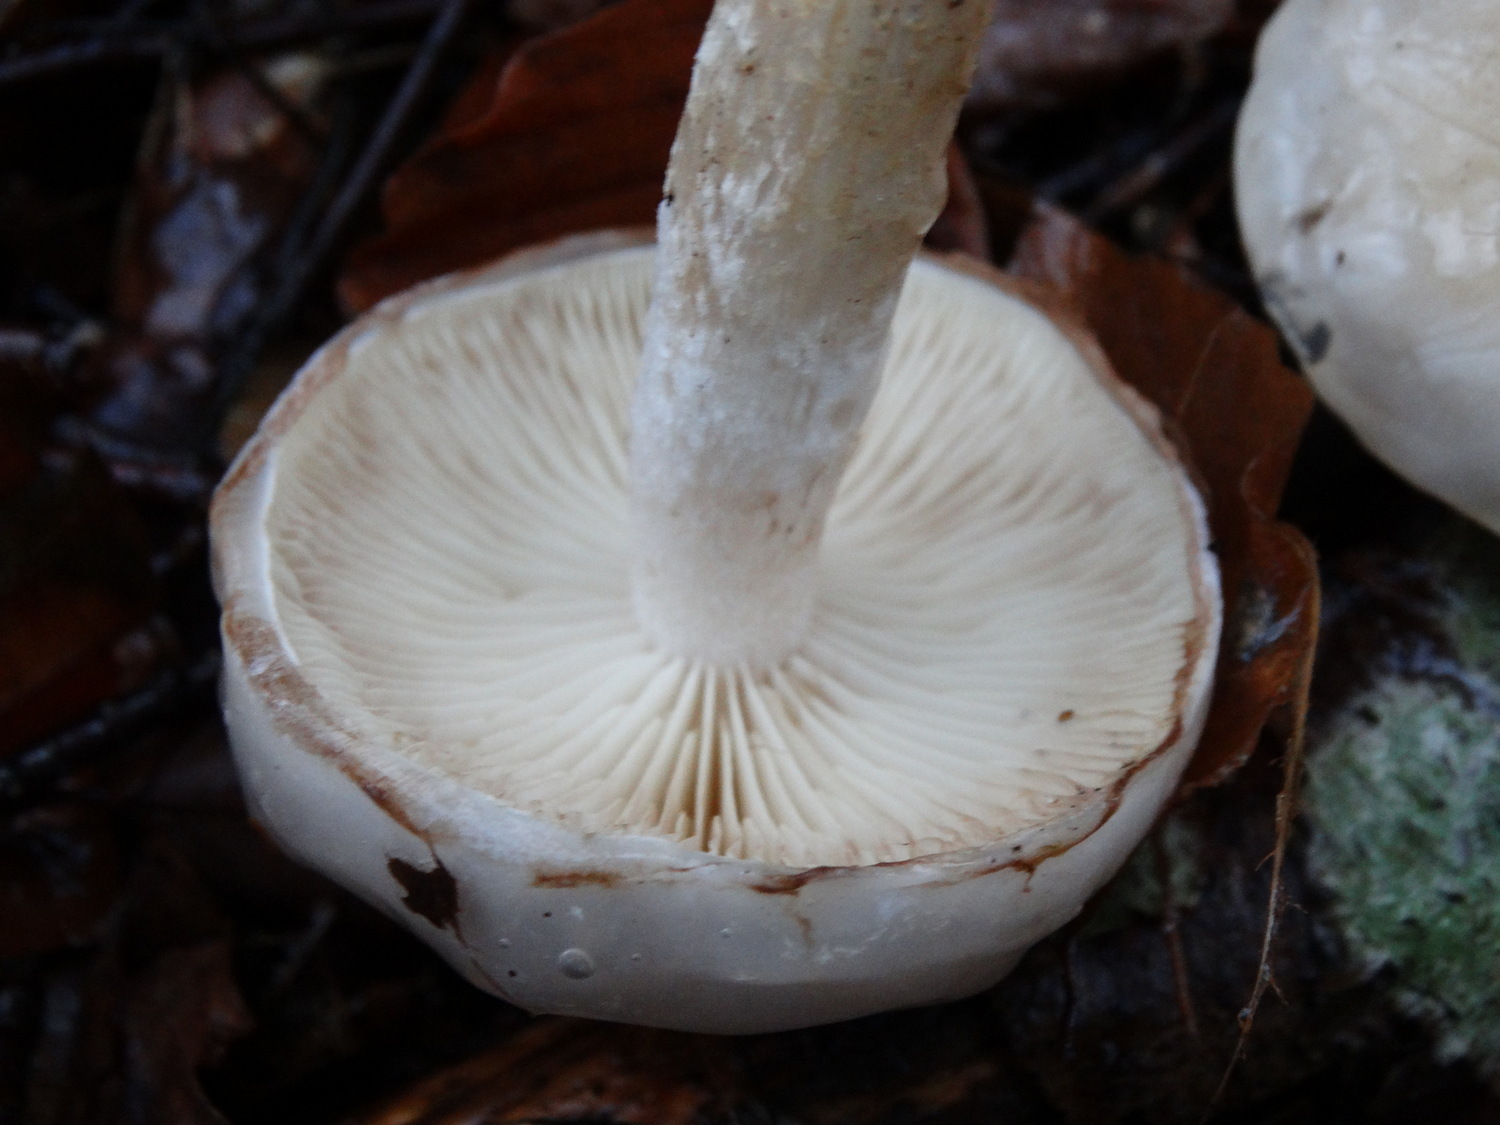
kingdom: Fungi
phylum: Basidiomycota
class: Agaricomycetes
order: Agaricales
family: Strophariaceae
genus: Pholiota
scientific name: Pholiota lenta
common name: løv-skælhat
